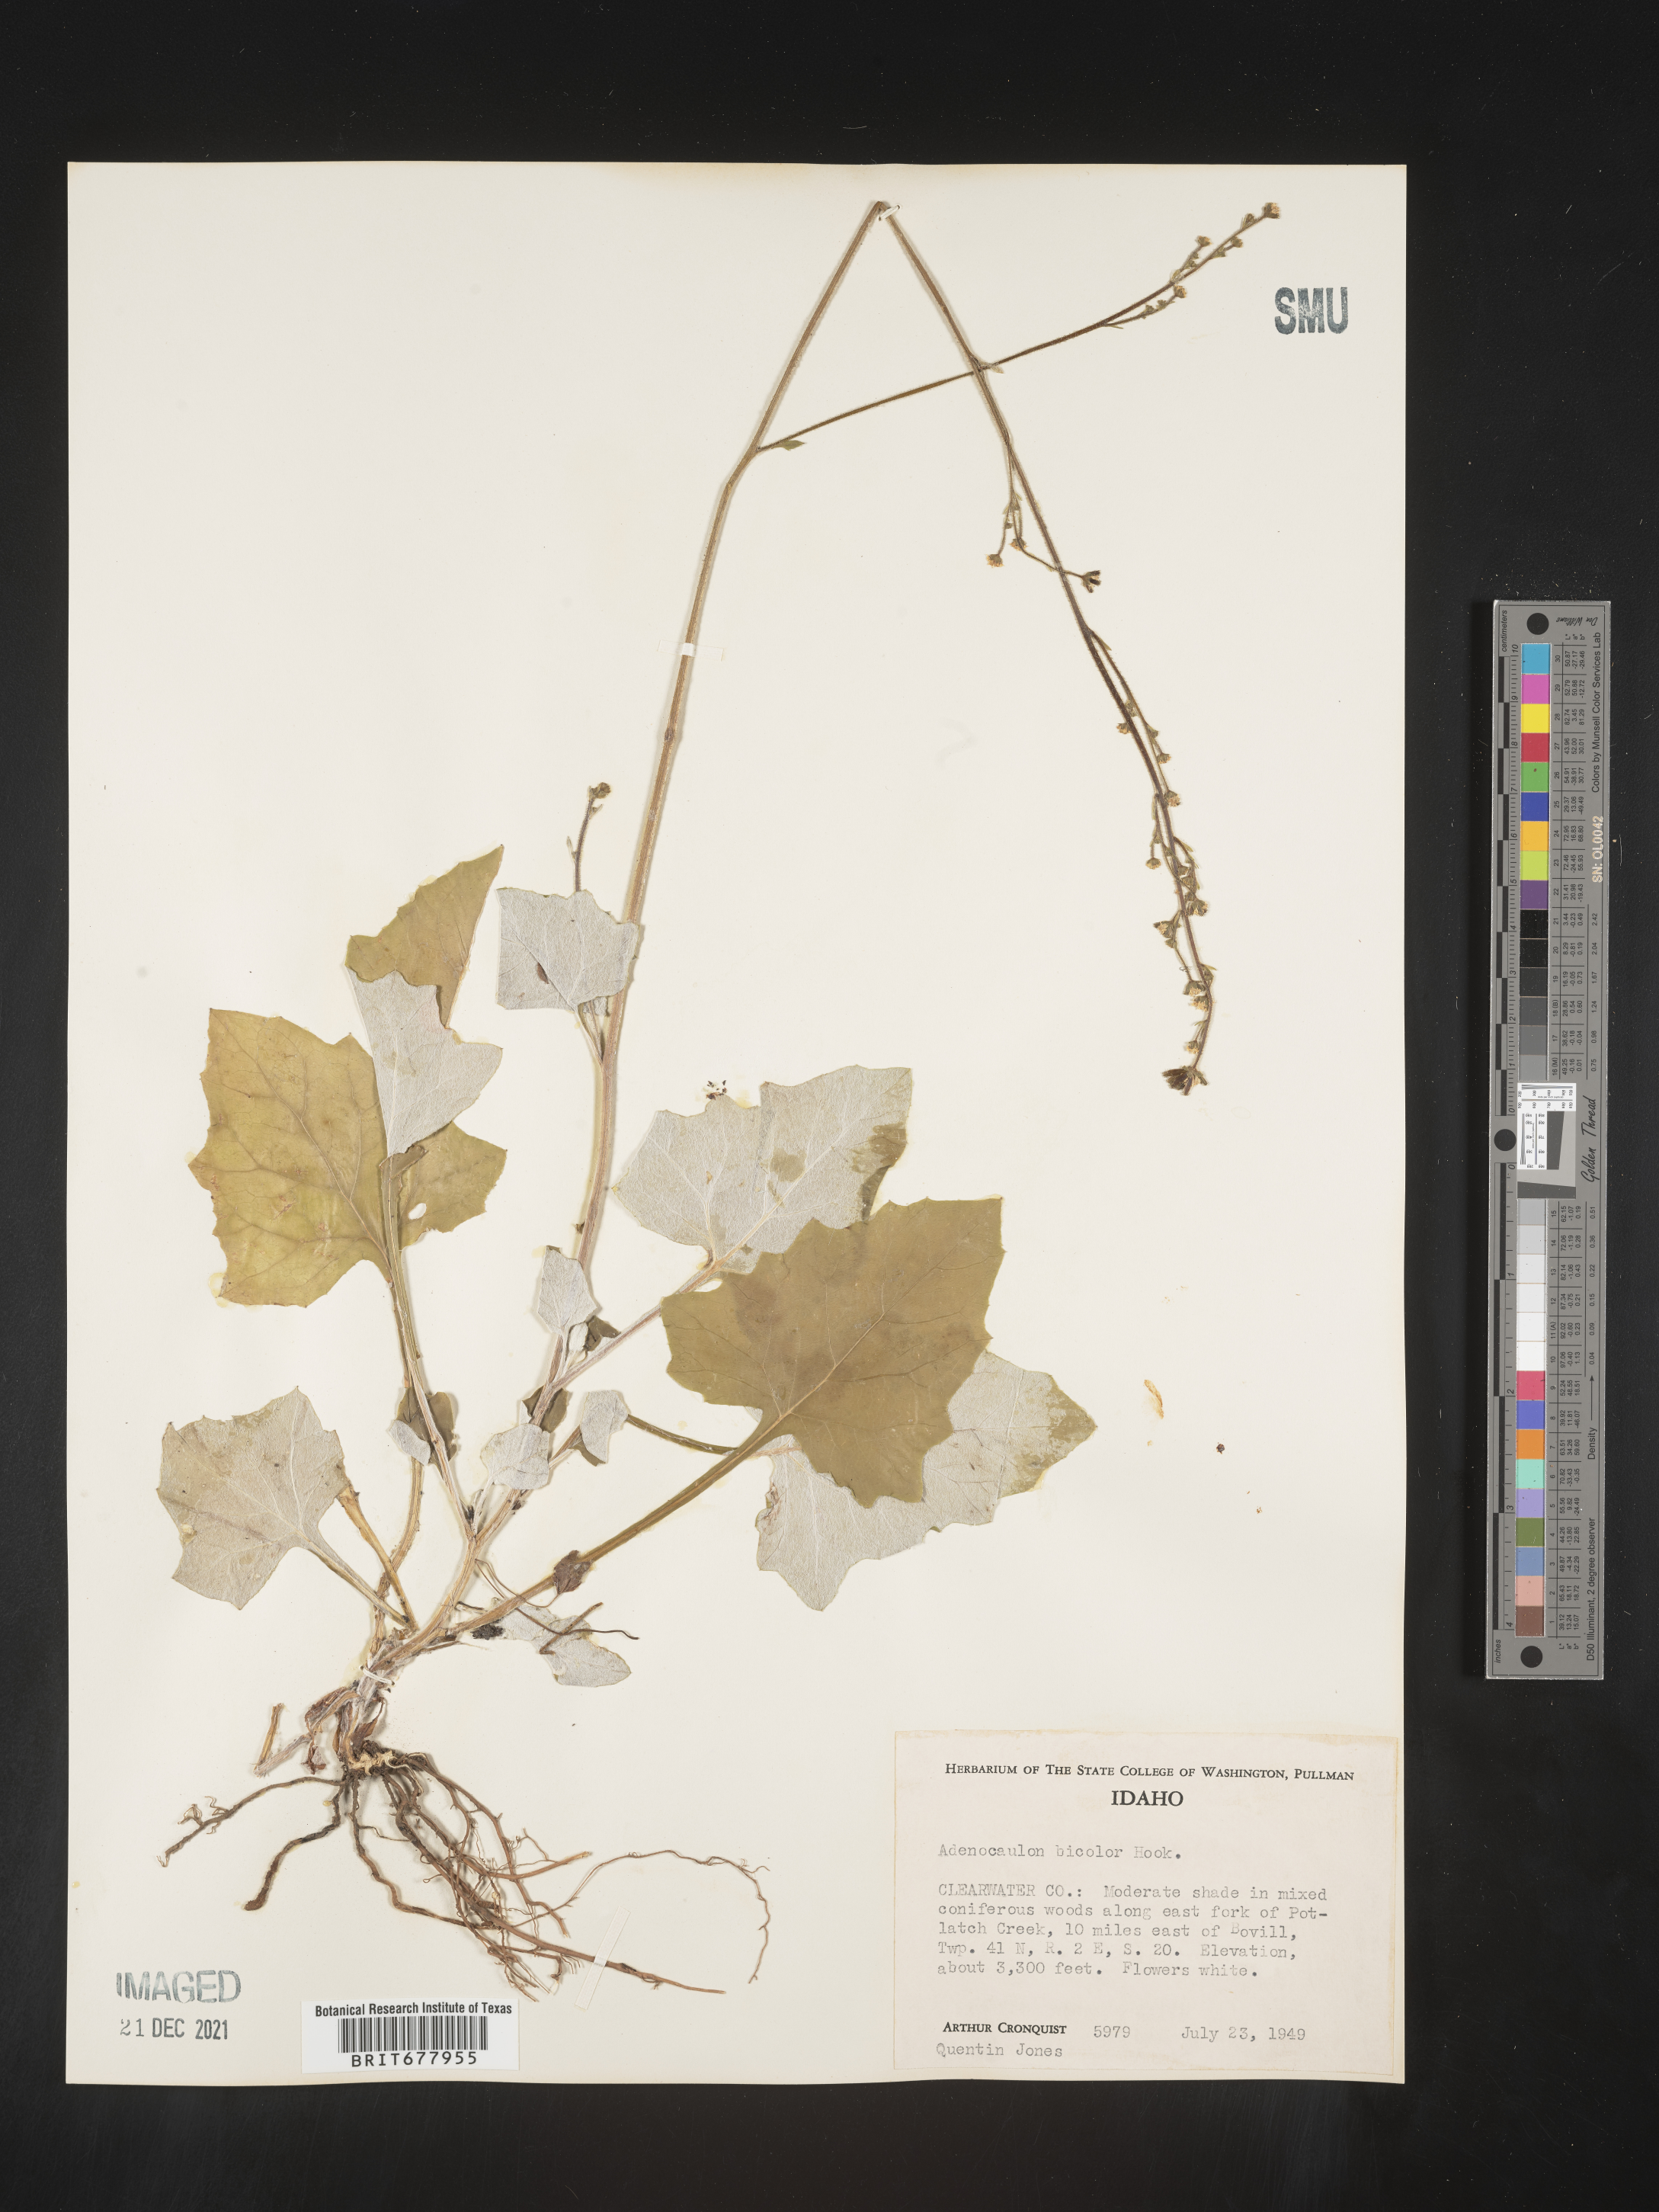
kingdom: Plantae
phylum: Tracheophyta
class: Magnoliopsida
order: Asterales
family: Asteraceae
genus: Adenocaulon
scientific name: Adenocaulon
